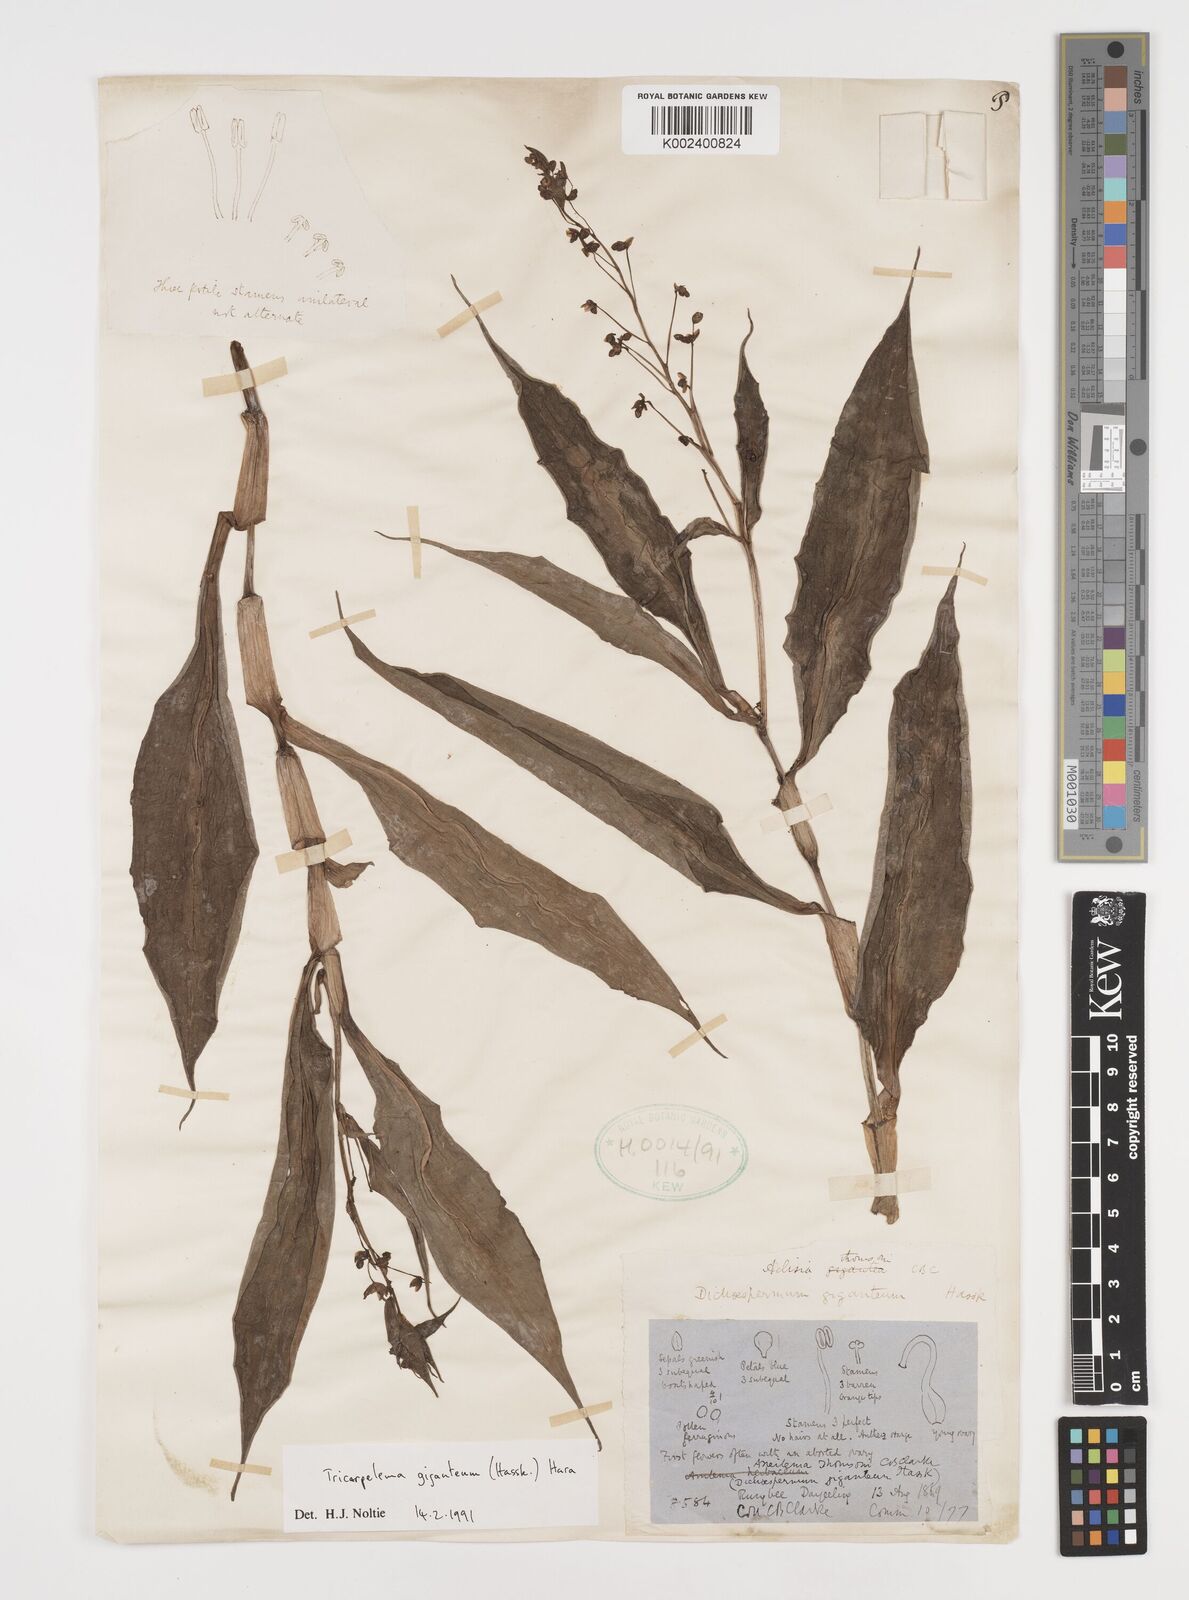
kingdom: Plantae
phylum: Tracheophyta
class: Liliopsida
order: Commelinales
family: Commelinaceae
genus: Tricarpelema
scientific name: Tricarpelema giganteum
